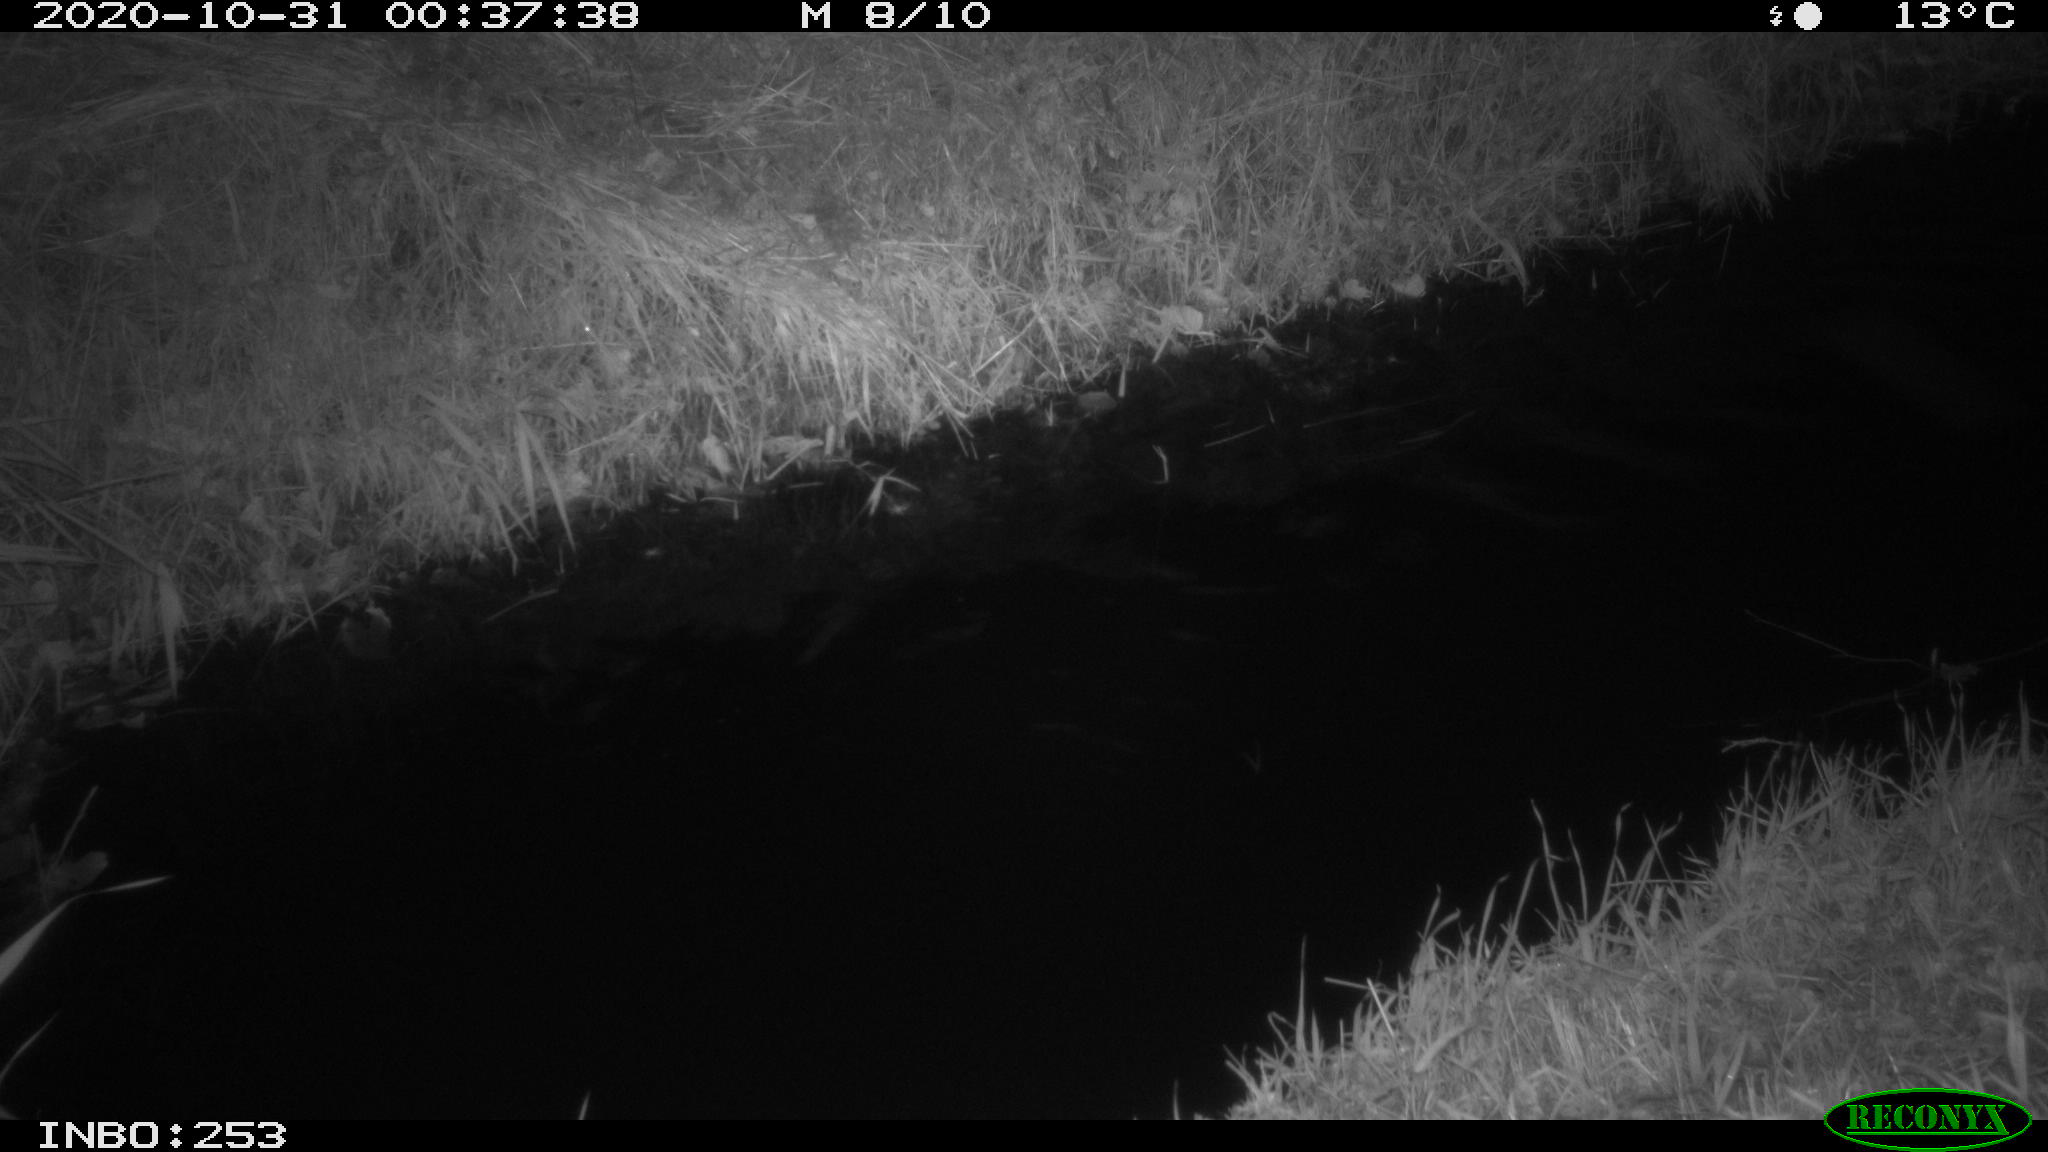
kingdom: Animalia
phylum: Chordata
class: Aves
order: Anseriformes
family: Anatidae
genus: Anas
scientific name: Anas platyrhynchos
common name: Mallard
